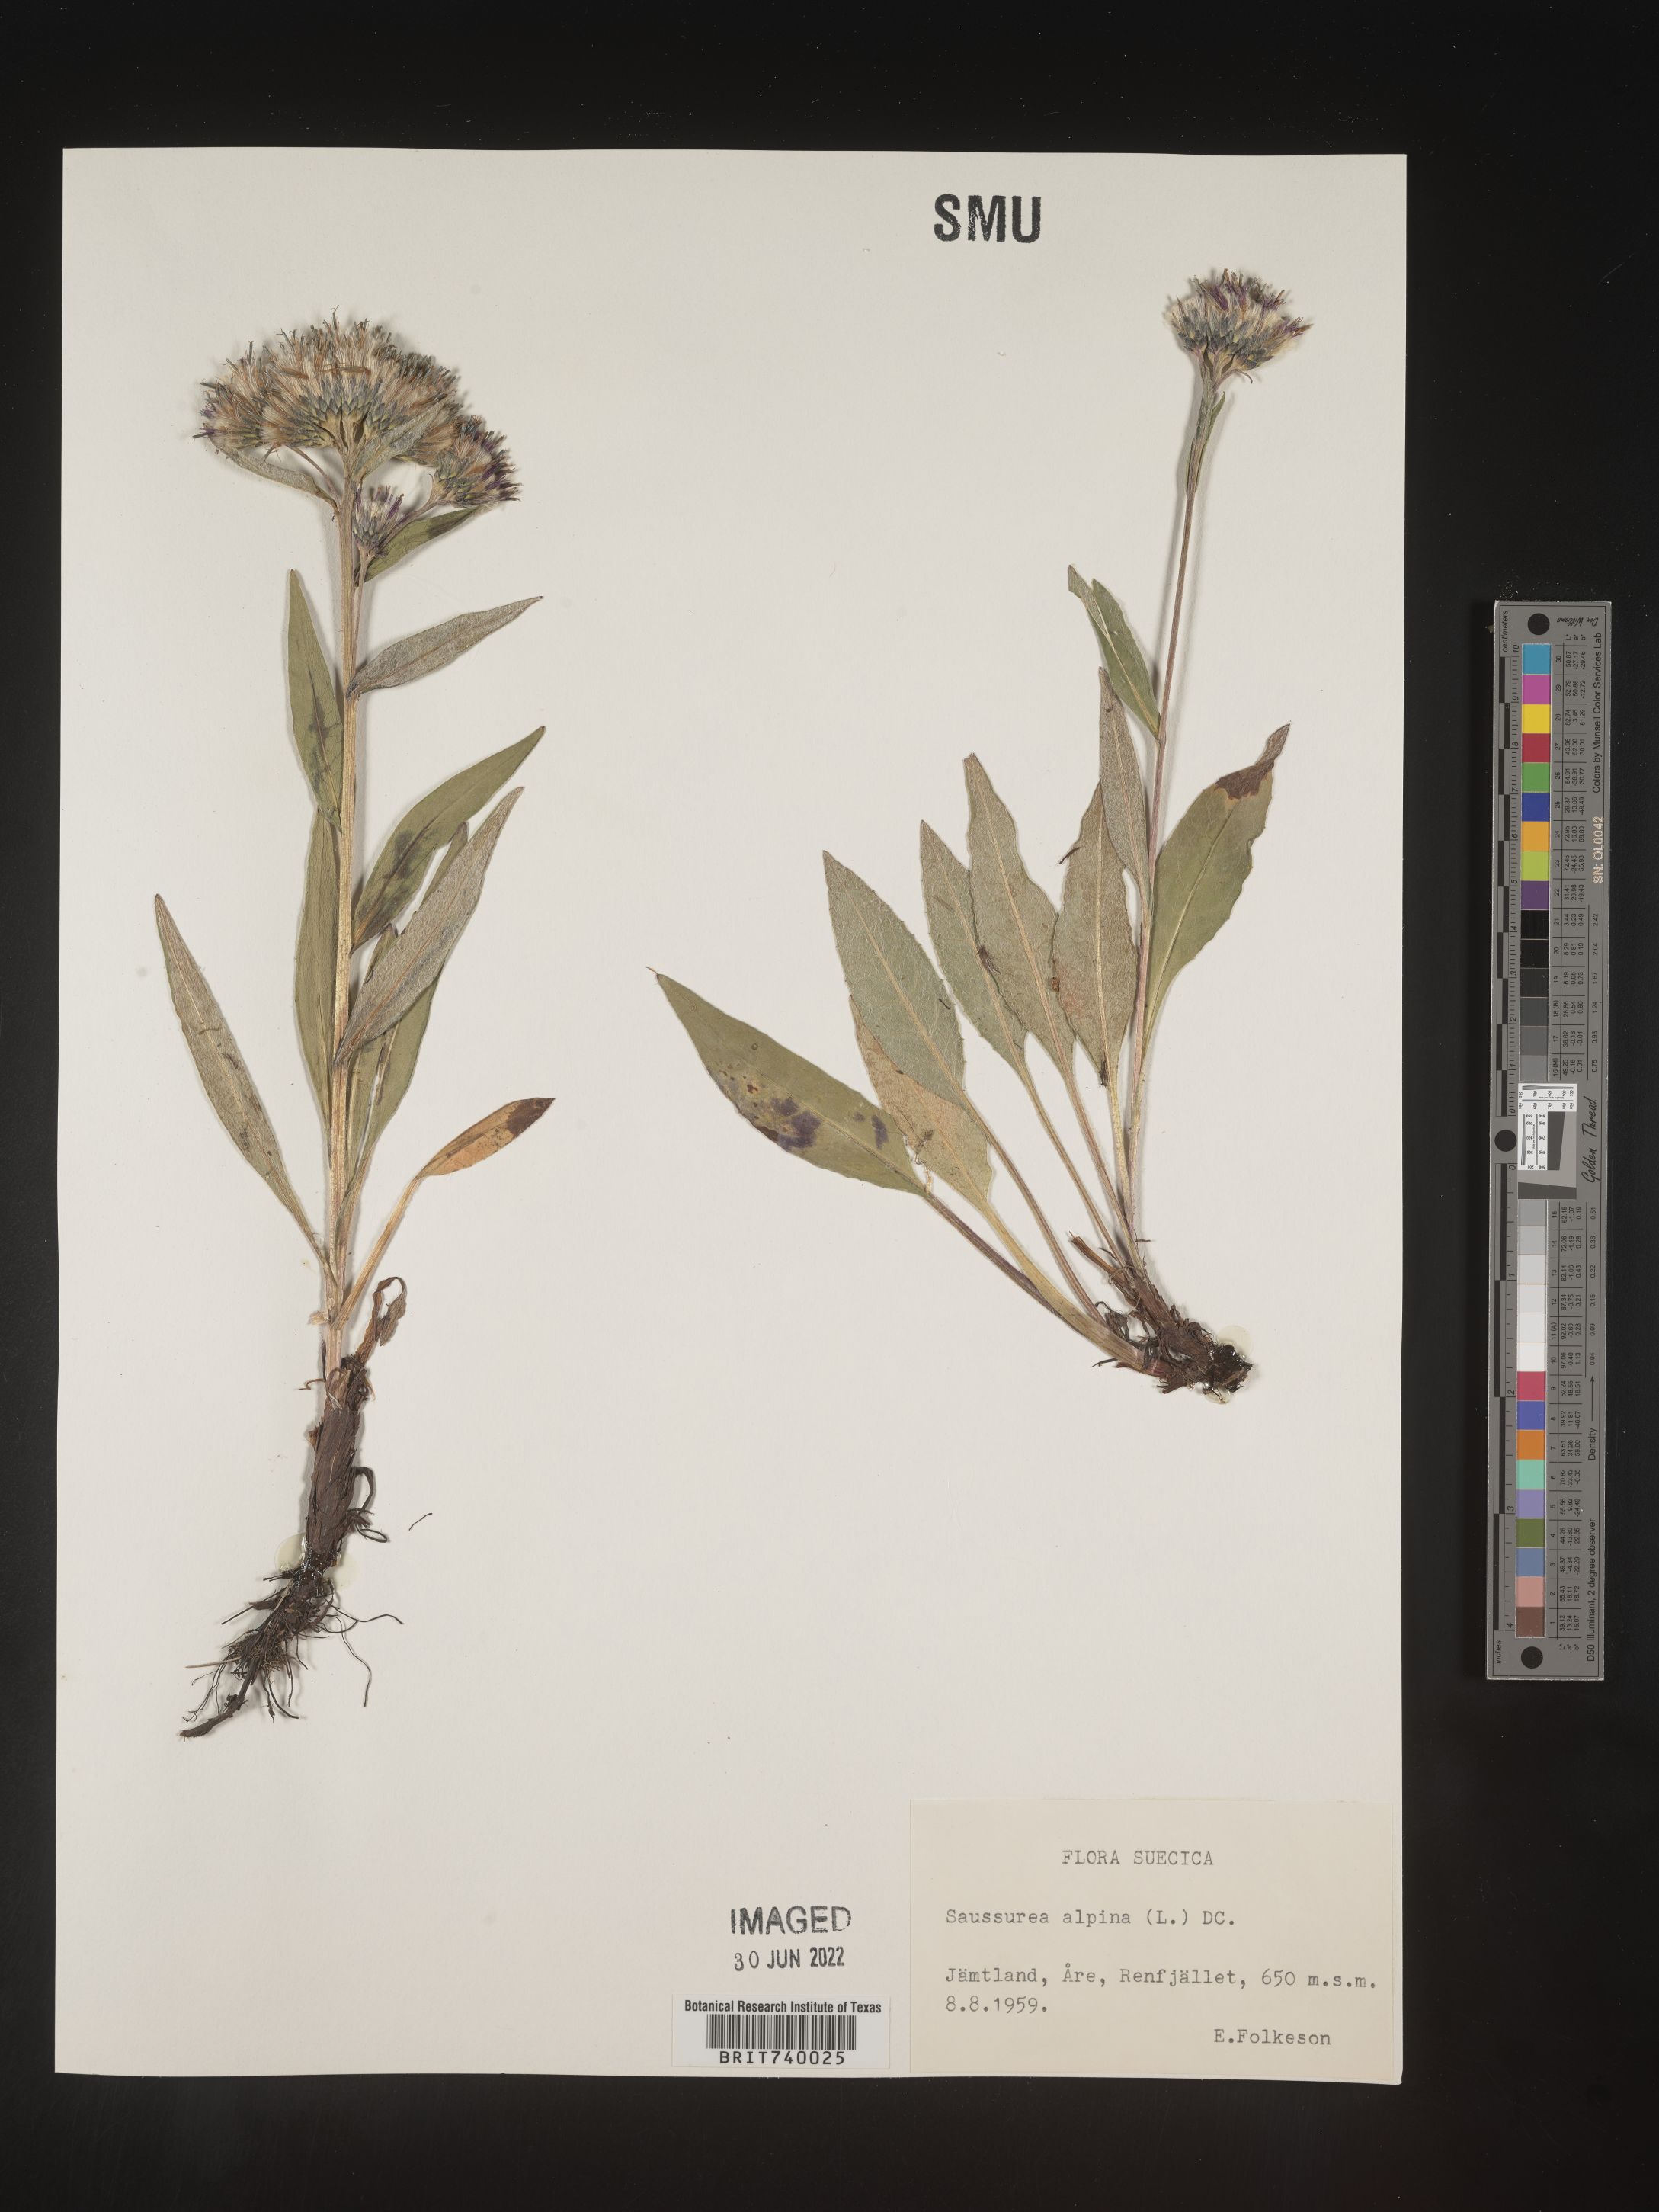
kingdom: Plantae
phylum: Tracheophyta
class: Magnoliopsida
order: Asterales
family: Asteraceae
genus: Saussurea
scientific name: Saussurea
